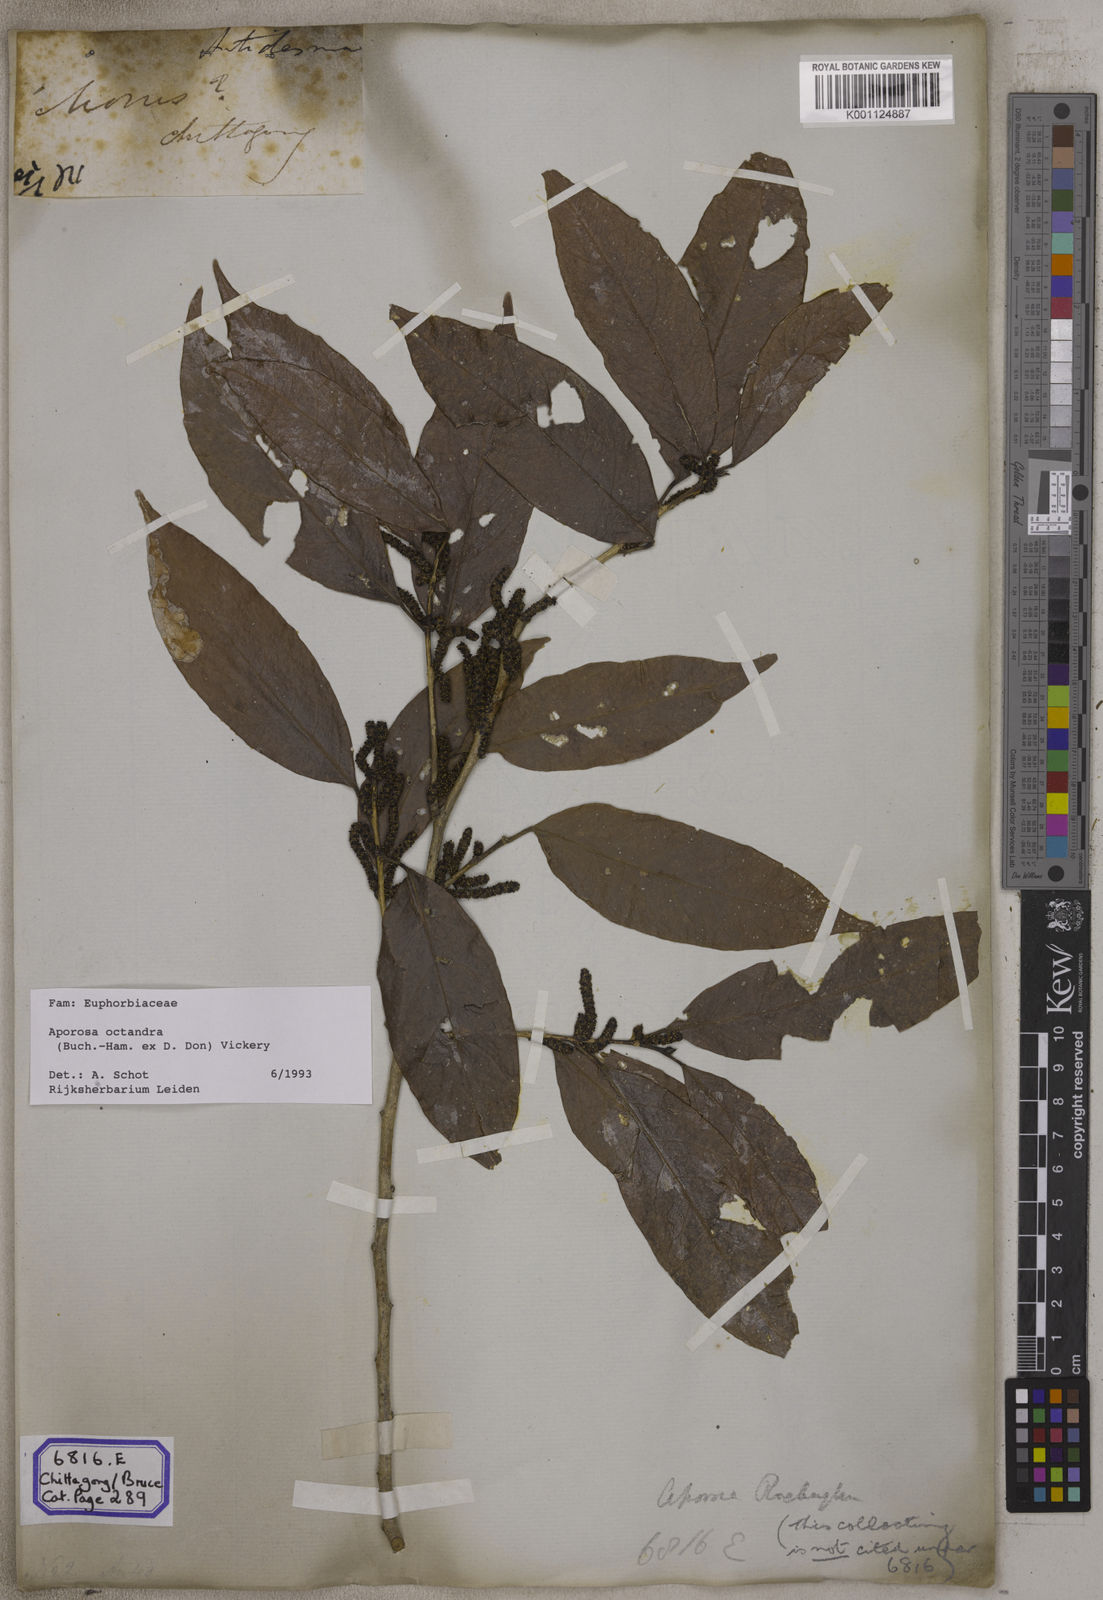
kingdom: Plantae
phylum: Tracheophyta
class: Magnoliopsida
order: Malpighiales
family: Phyllanthaceae
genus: Aporosa
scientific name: Aporosa
